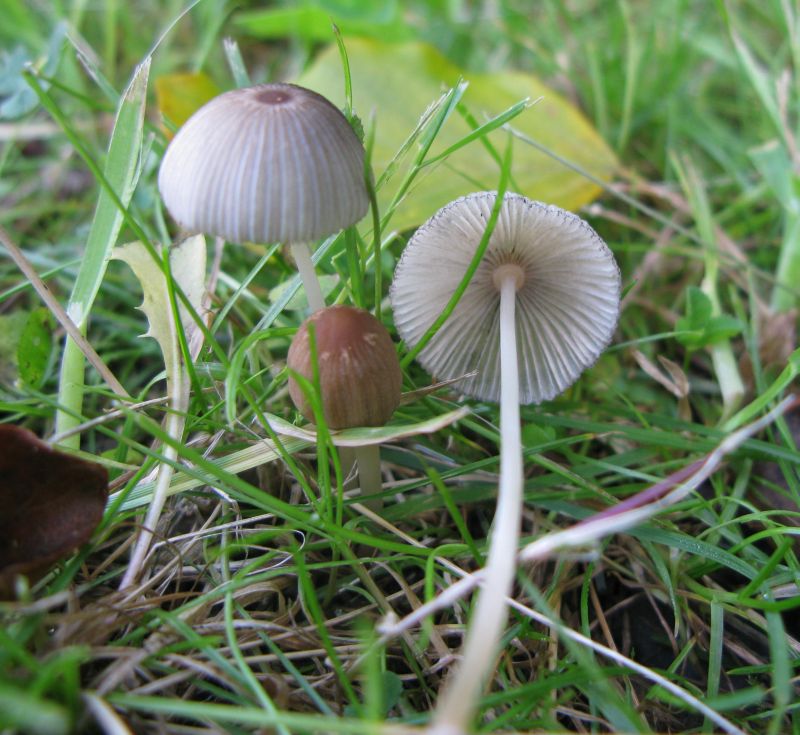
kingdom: Fungi
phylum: Basidiomycota
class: Agaricomycetes
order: Agaricales
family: Psathyrellaceae
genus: Parasola
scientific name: Parasola lactea
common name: glat hjulhat
